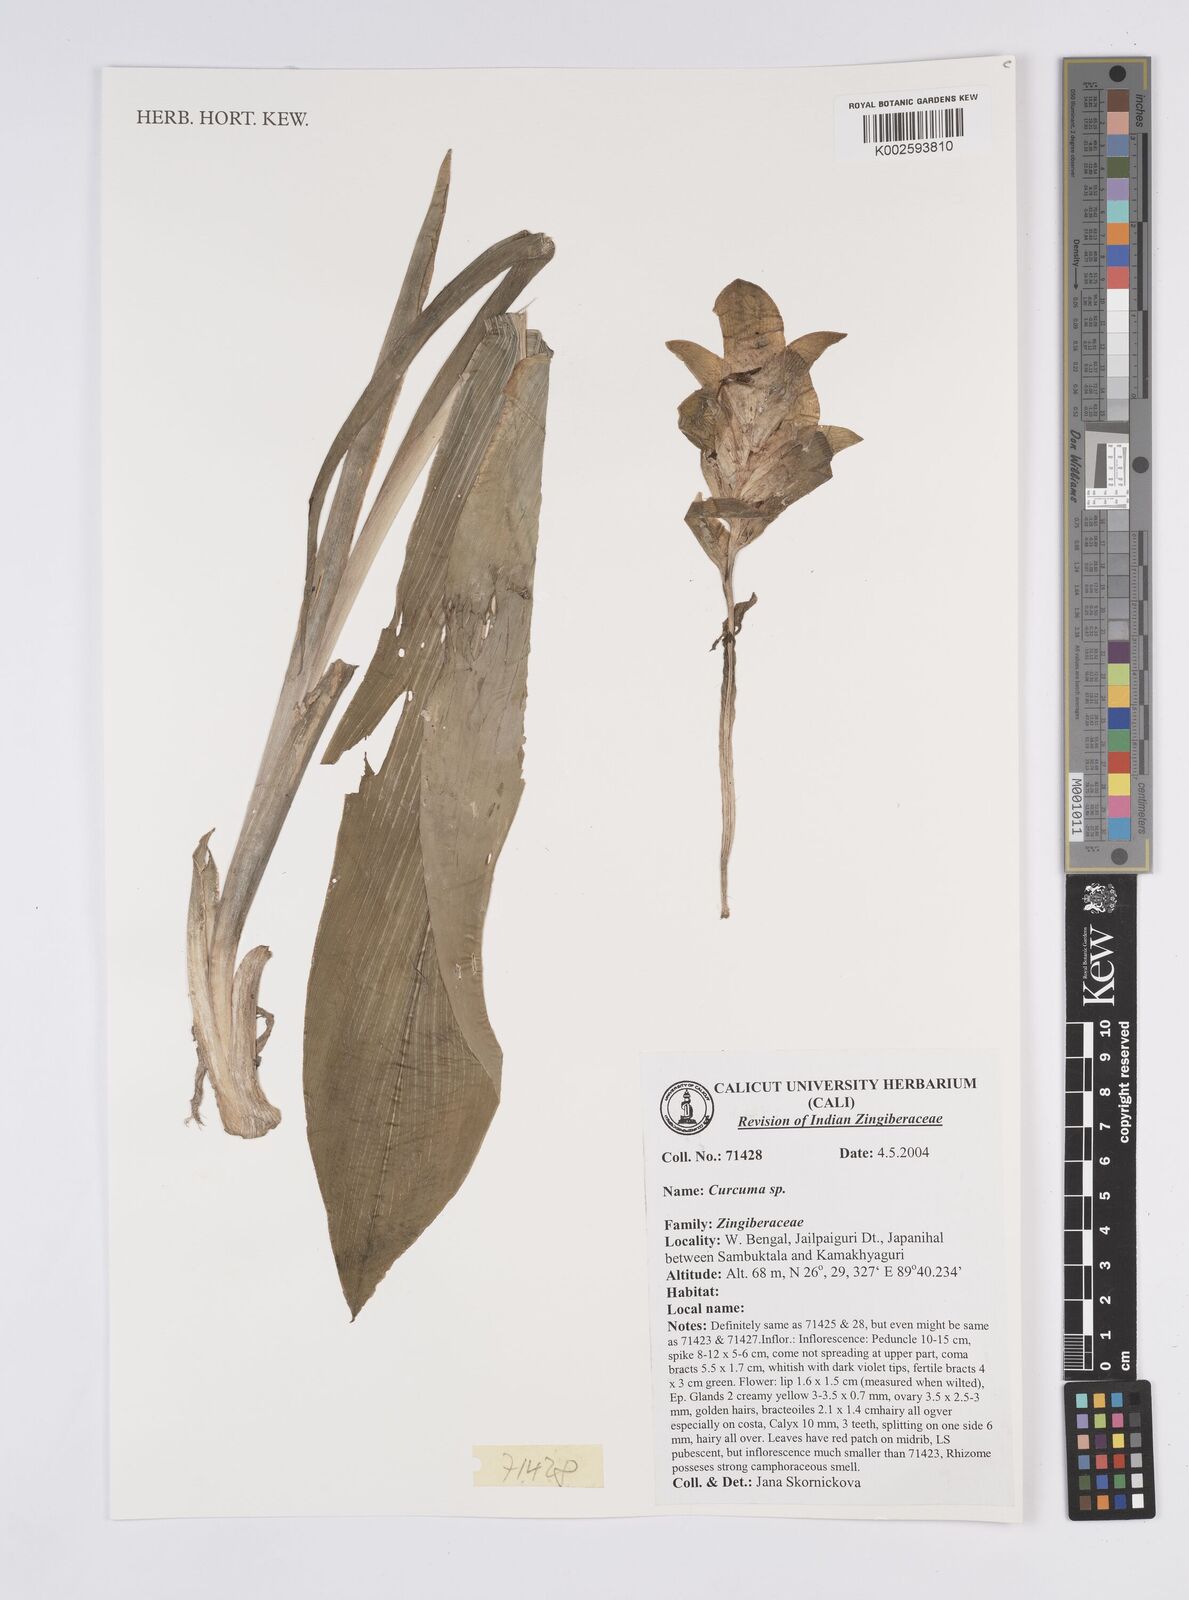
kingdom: Plantae
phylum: Tracheophyta
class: Liliopsida
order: Zingiberales
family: Zingiberaceae
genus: Curcuma
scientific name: Curcuma
